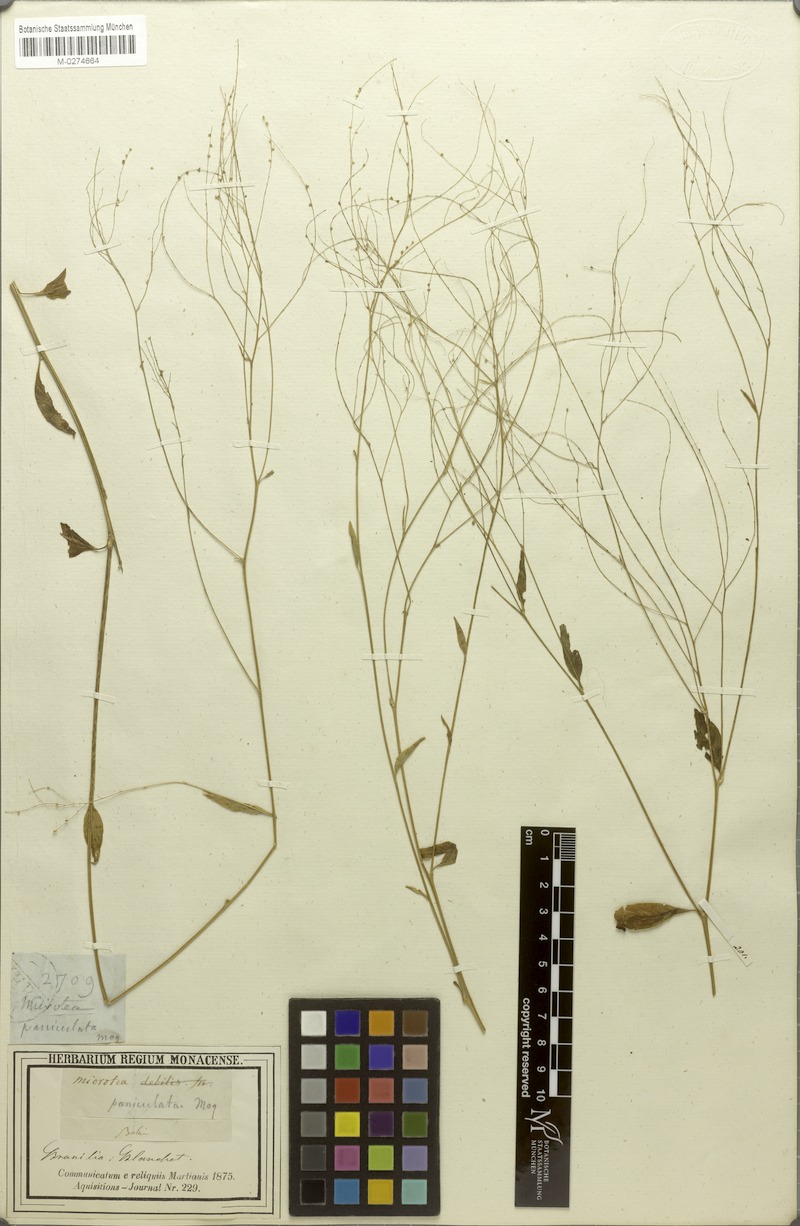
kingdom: Plantae
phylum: Tracheophyta
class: Magnoliopsida
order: Caryophyllales
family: Microteaceae
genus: Microtea
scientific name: Microtea paniculata
